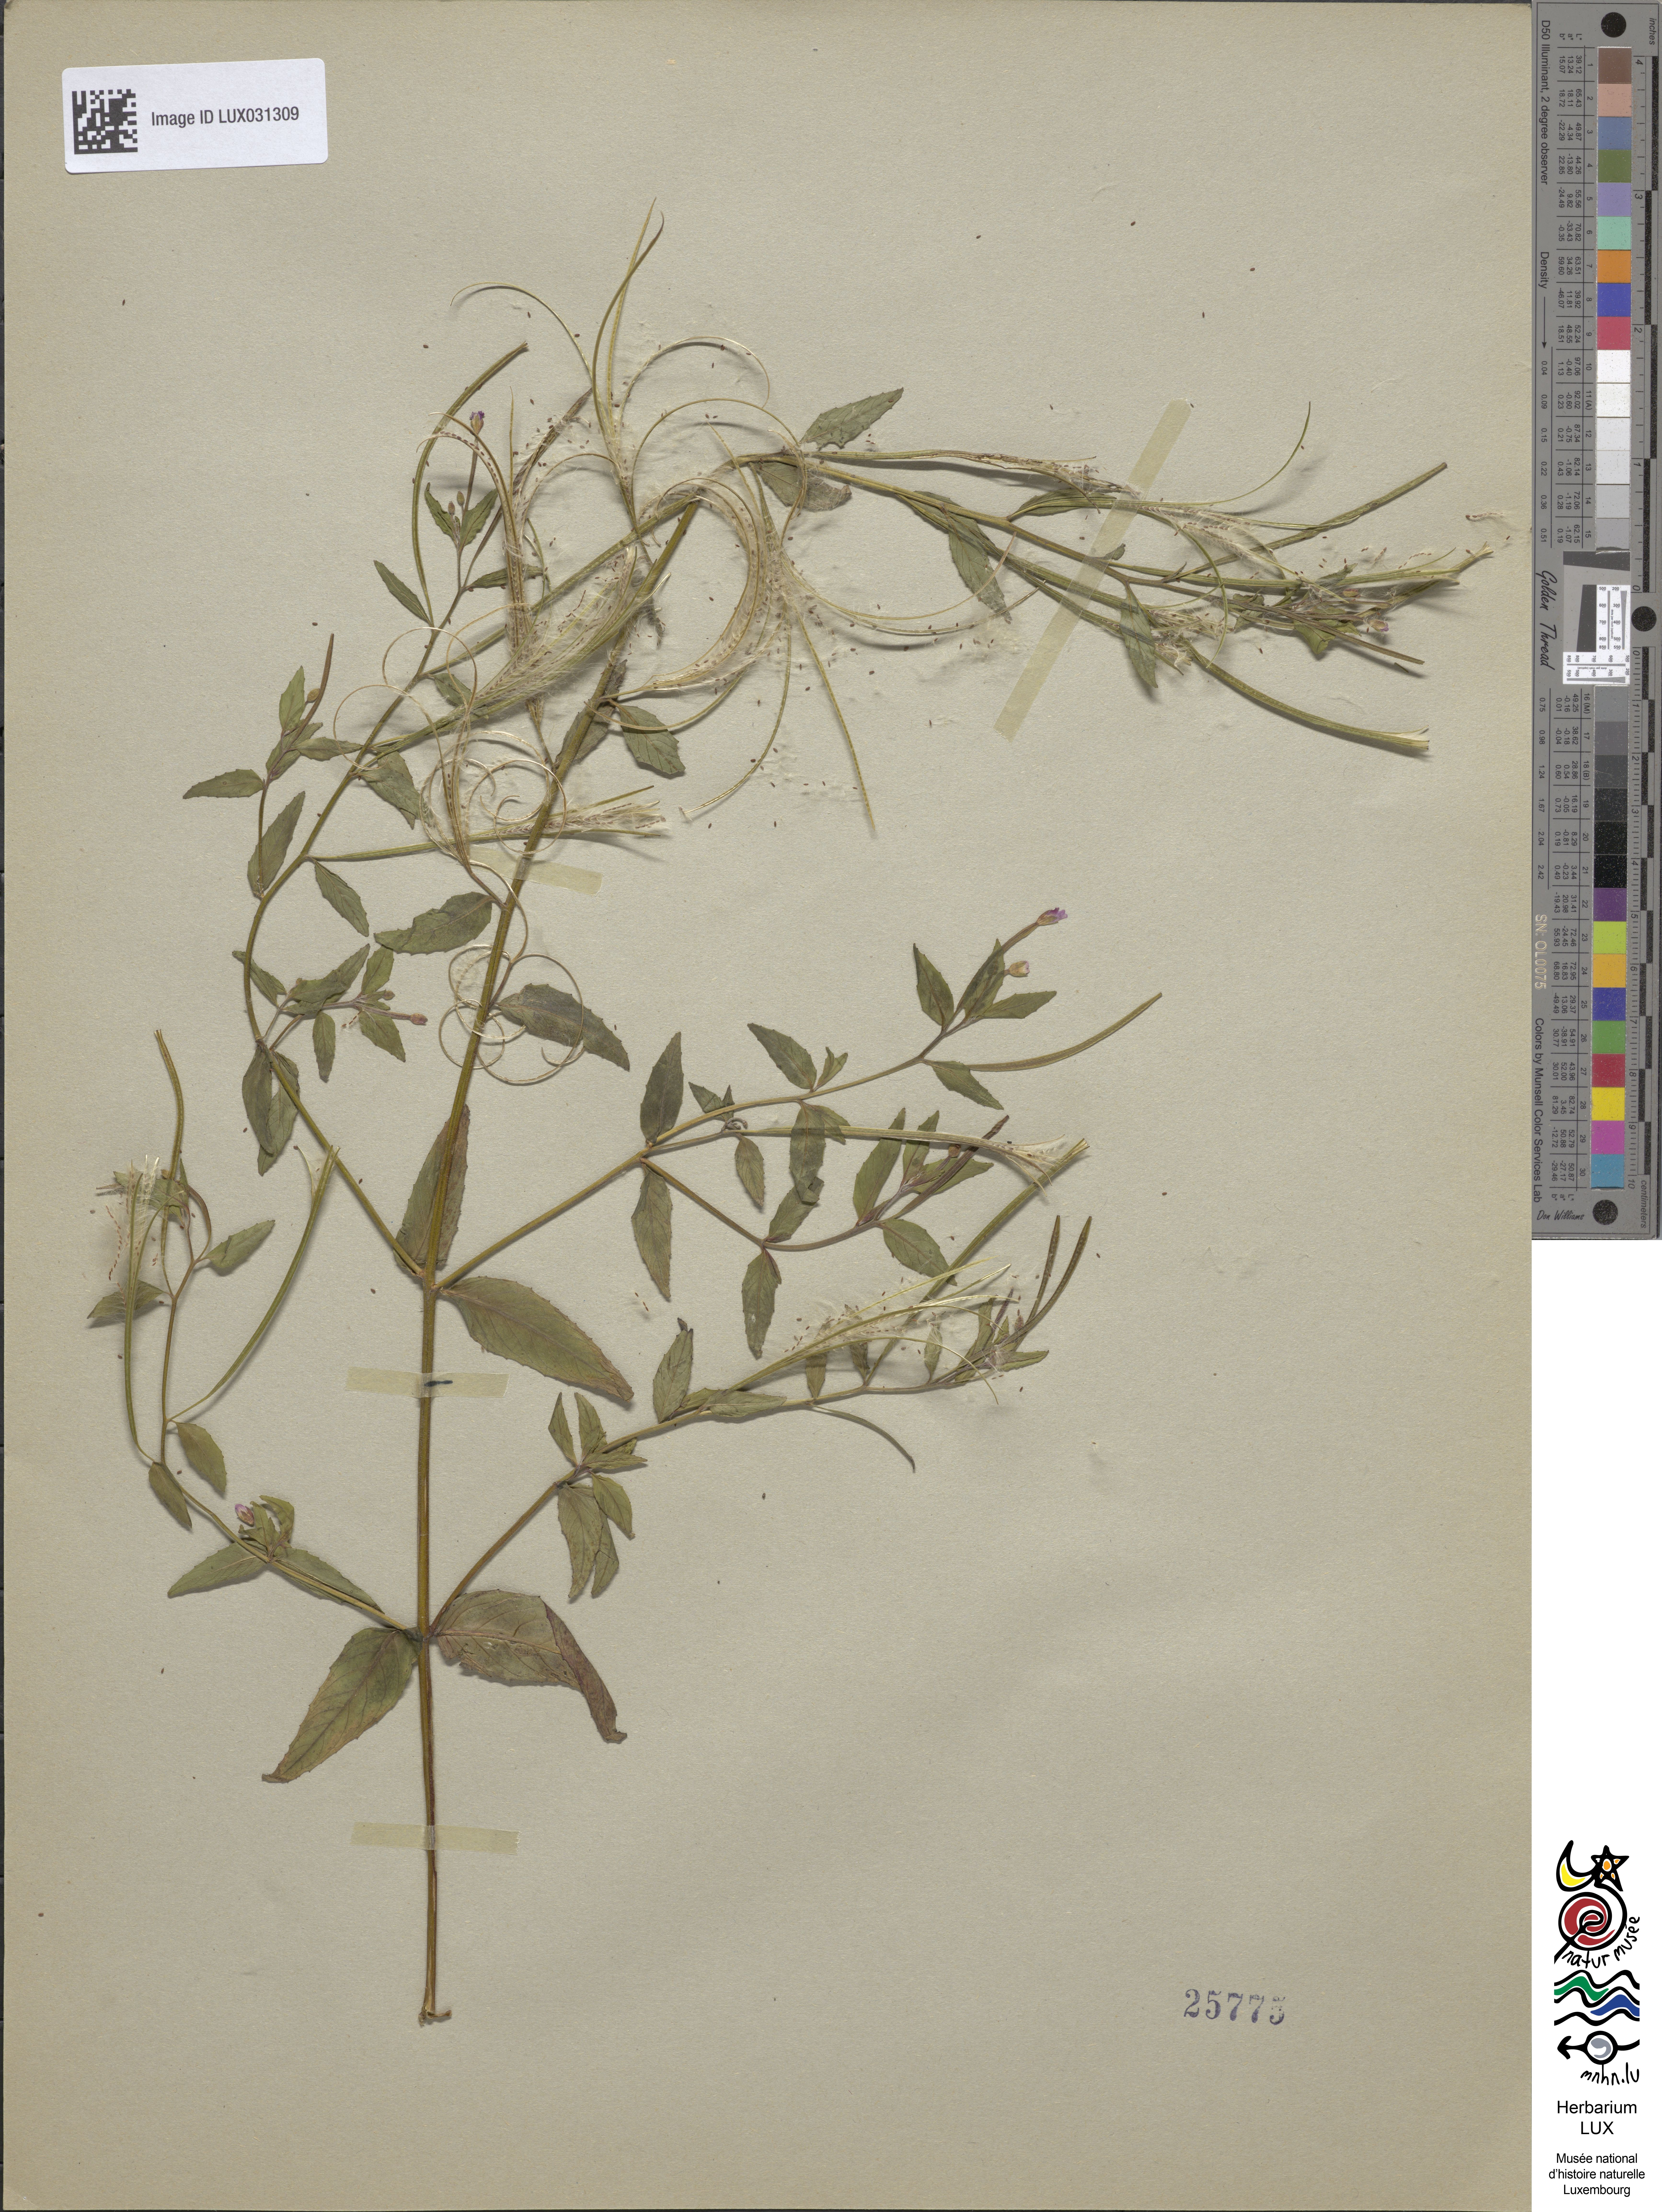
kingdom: Plantae
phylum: Tracheophyta
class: Magnoliopsida
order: Myrtales
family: Onagraceae
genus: Epilobium
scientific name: Epilobium ciliatum
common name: American willowherb
